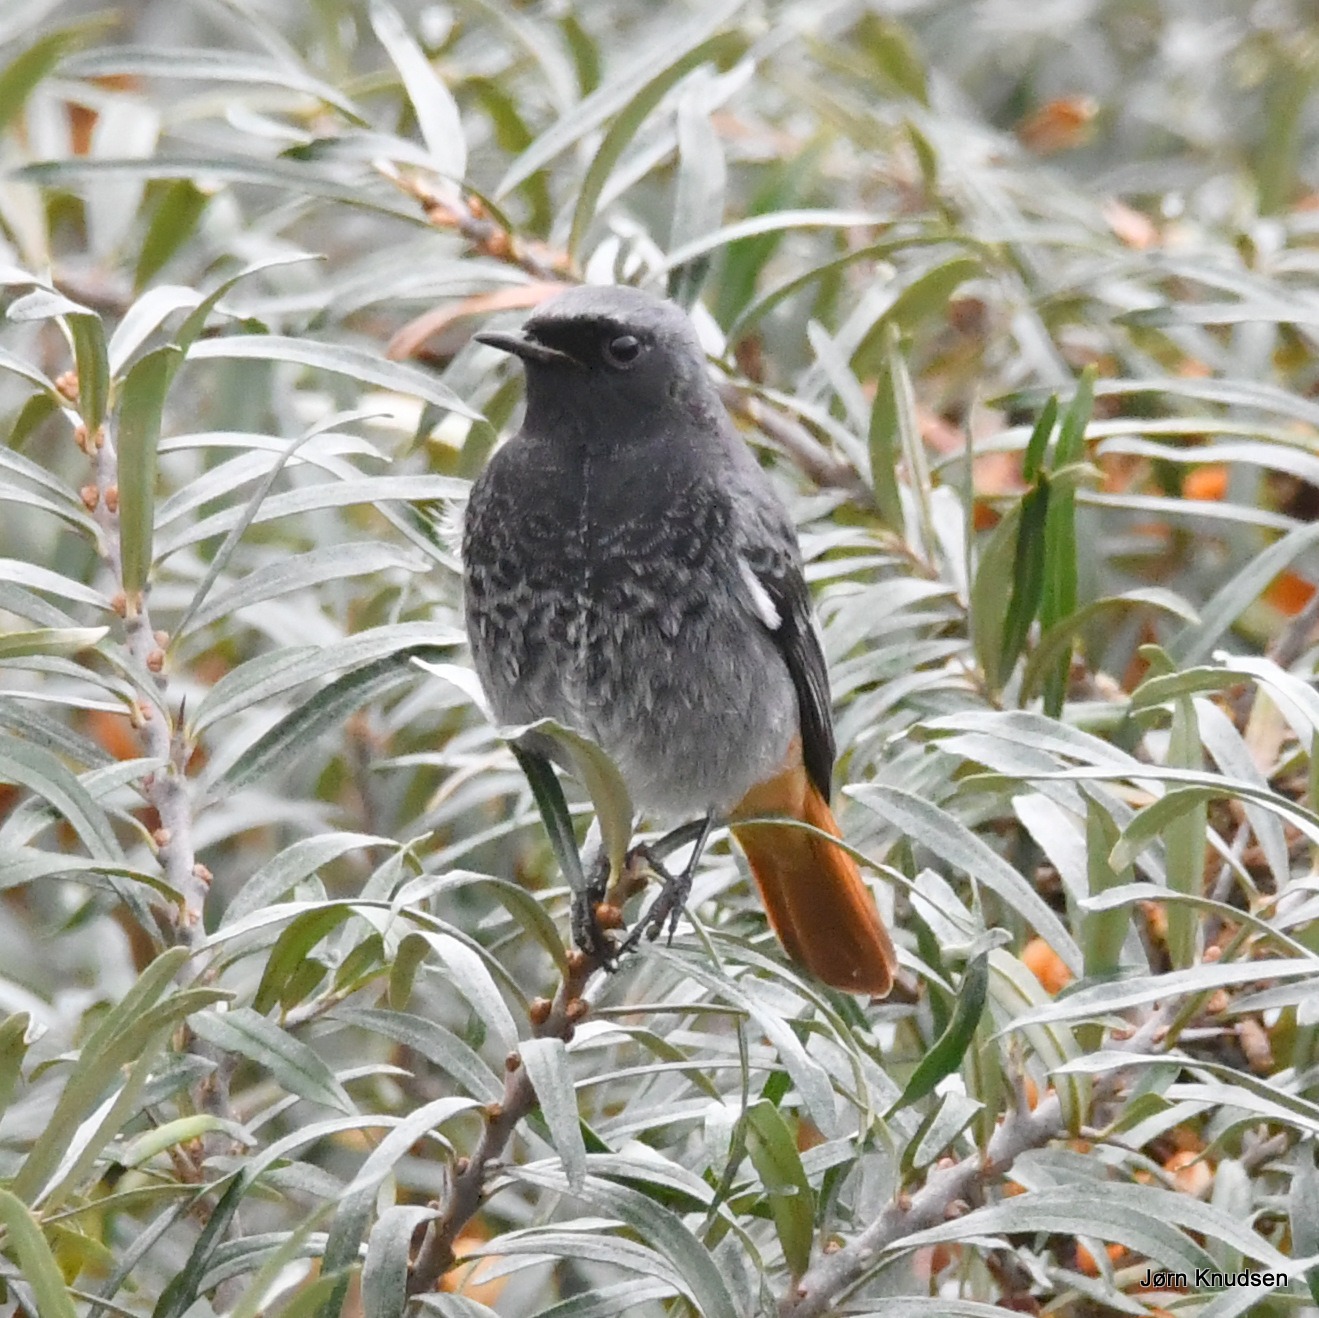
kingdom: Animalia
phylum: Chordata
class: Aves
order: Passeriformes
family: Muscicapidae
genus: Phoenicurus
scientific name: Phoenicurus ochruros
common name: Husrødstjert
